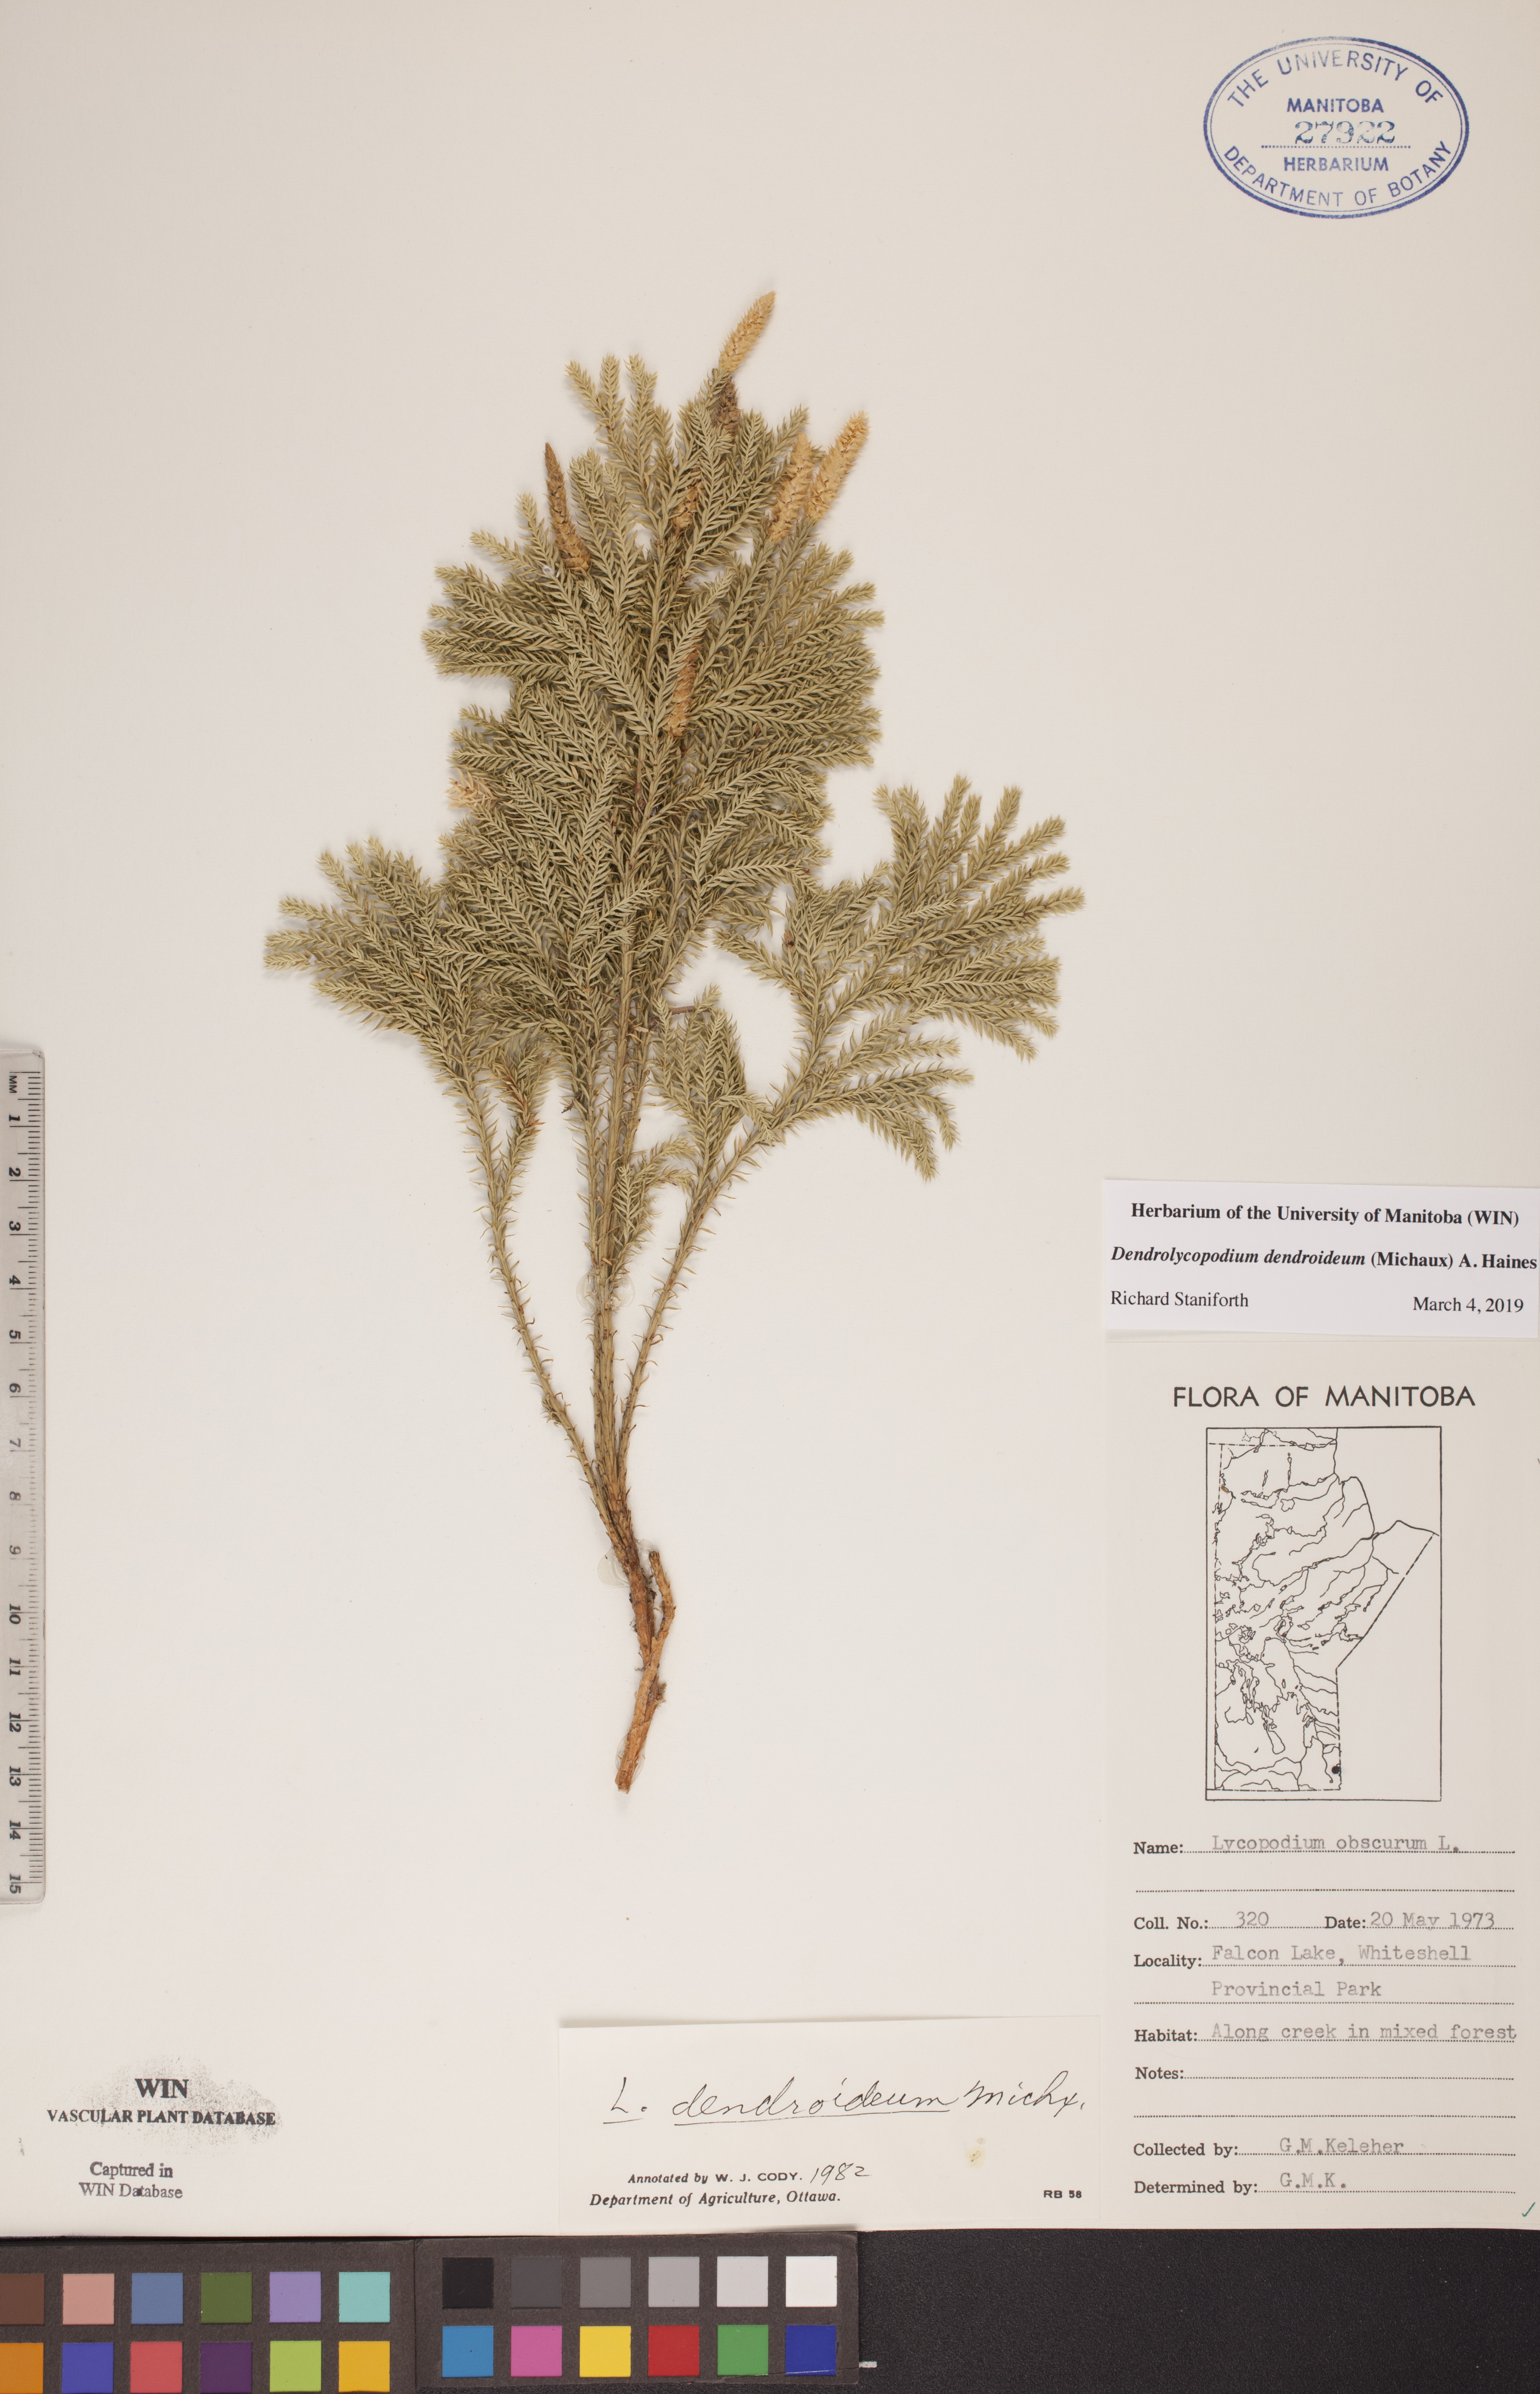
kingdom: Plantae
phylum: Tracheophyta
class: Lycopodiopsida
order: Lycopodiales
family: Lycopodiaceae
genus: Dendrolycopodium
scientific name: Dendrolycopodium dendroideum
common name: Northern tree-clubmoss
